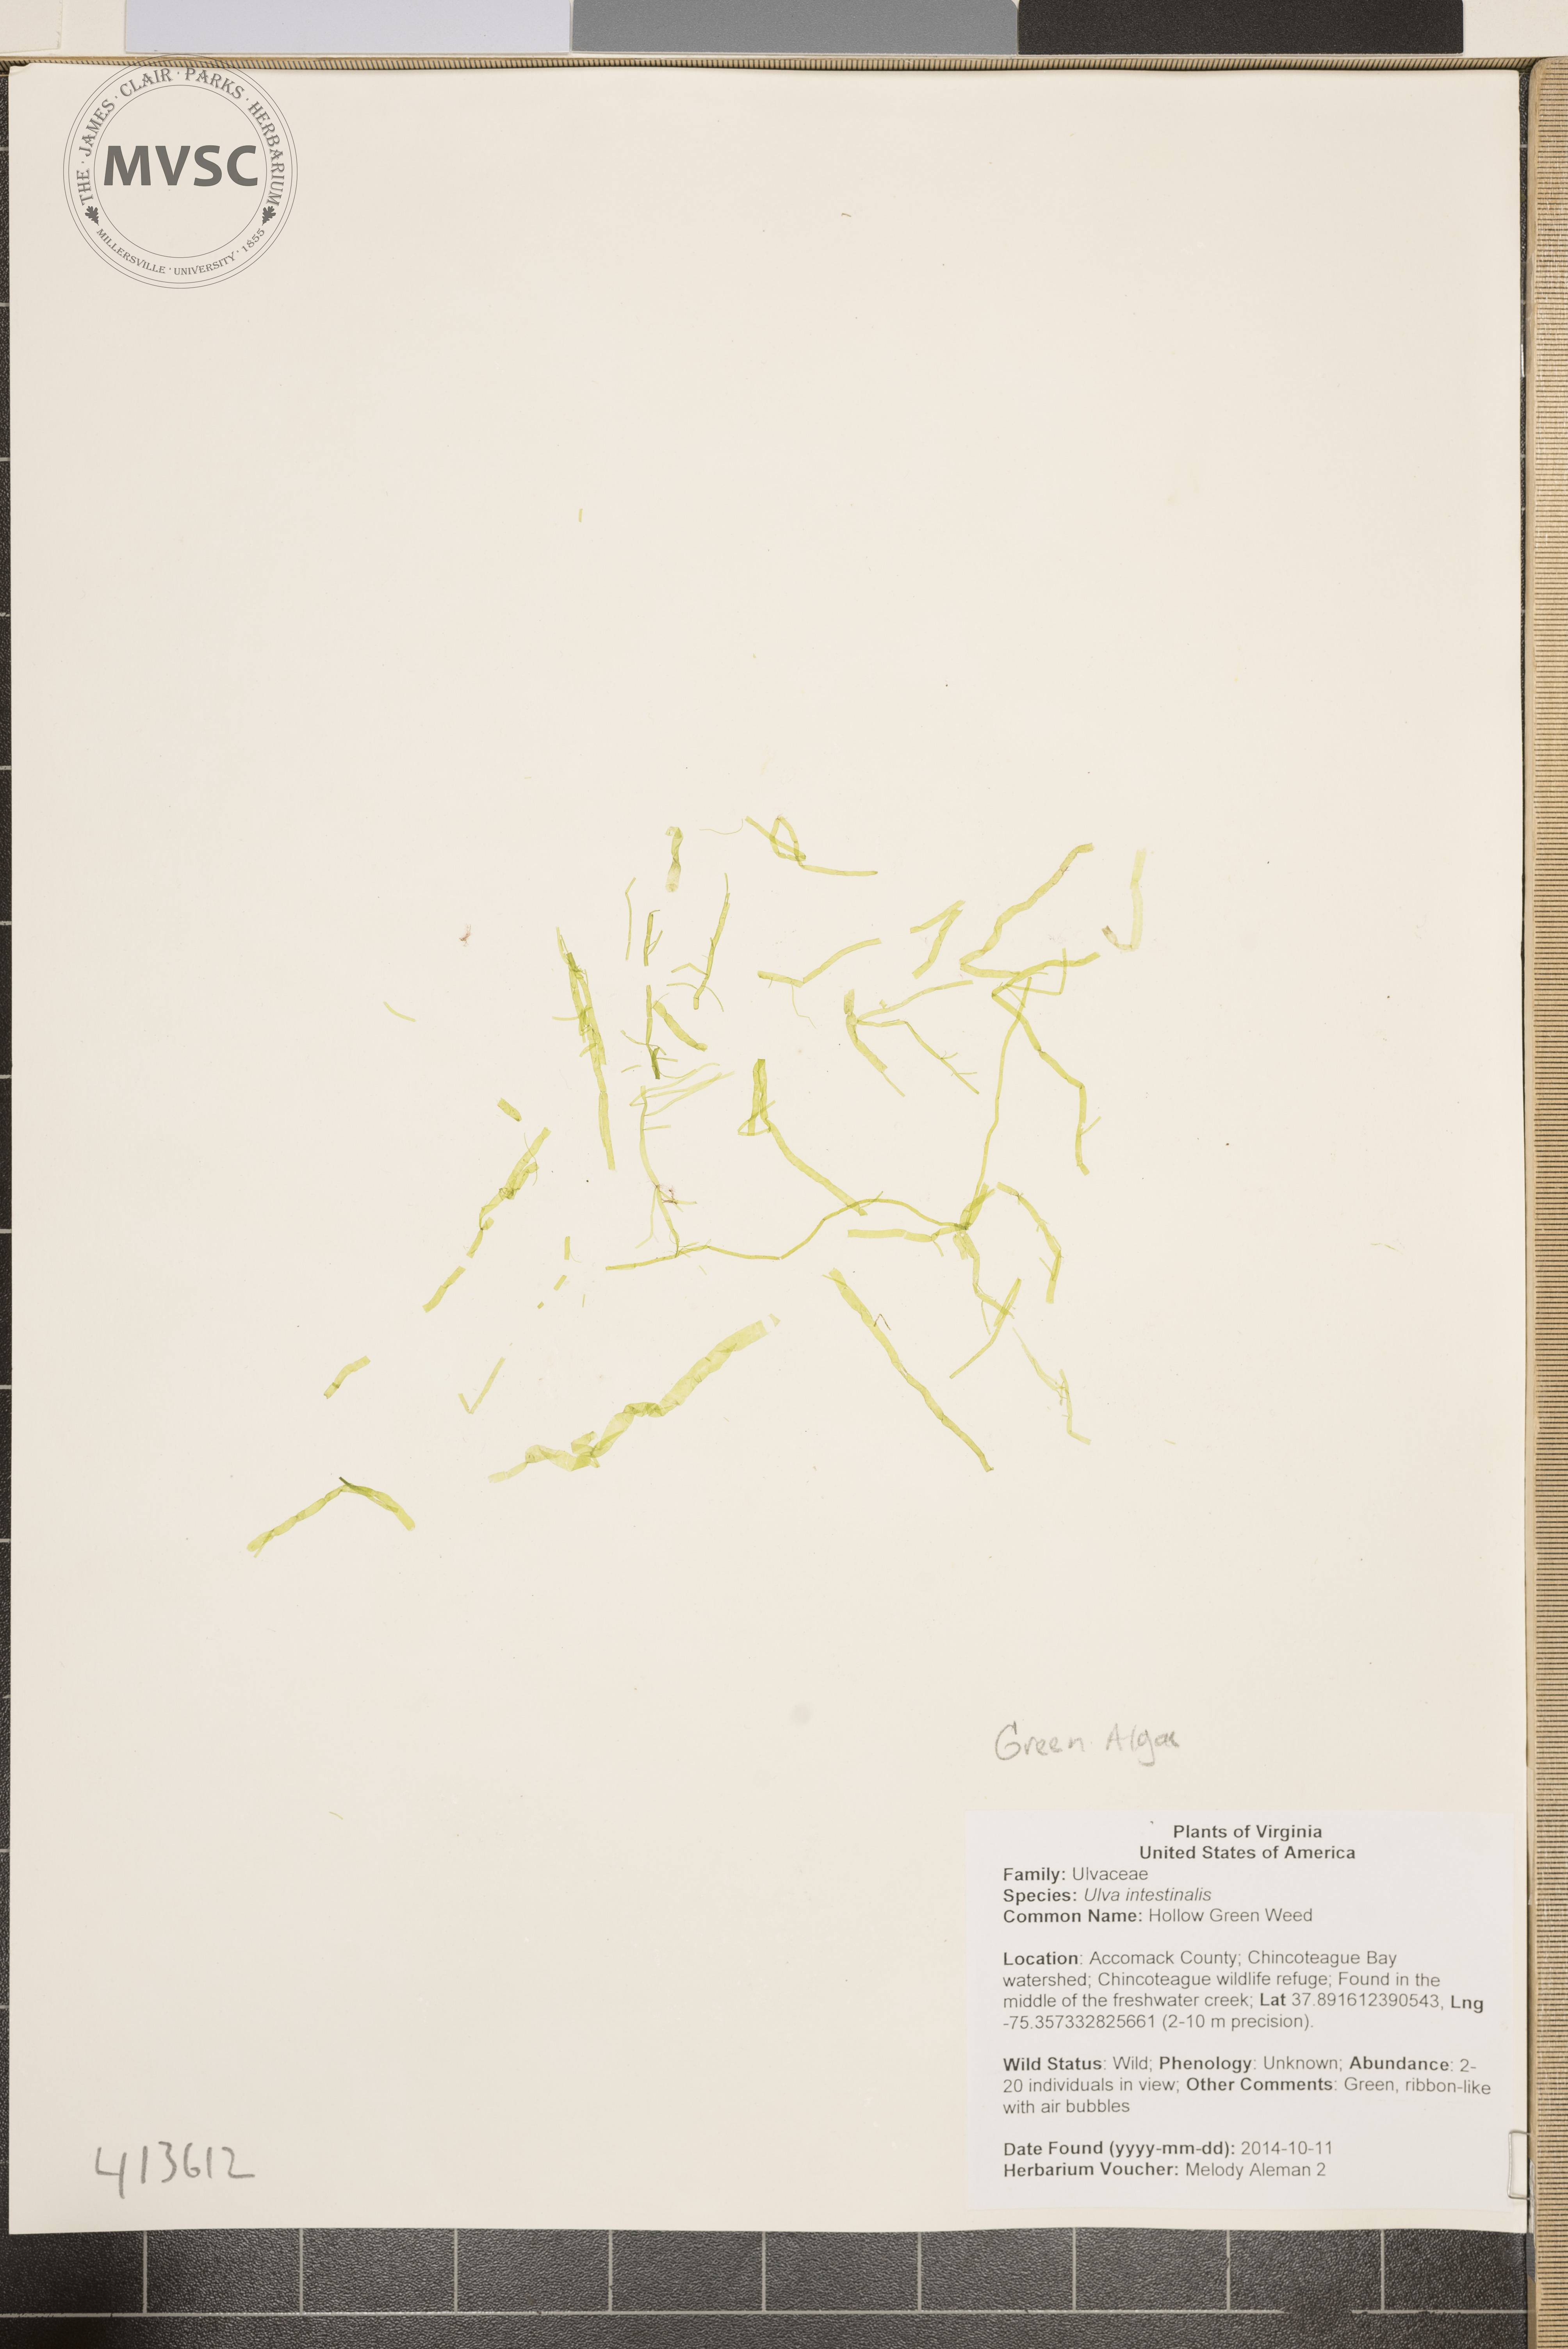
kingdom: Plantae
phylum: Chlorophyta
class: Ulvophyceae
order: Ulvales
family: Ulvaceae
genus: Ulva
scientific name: Ulva
